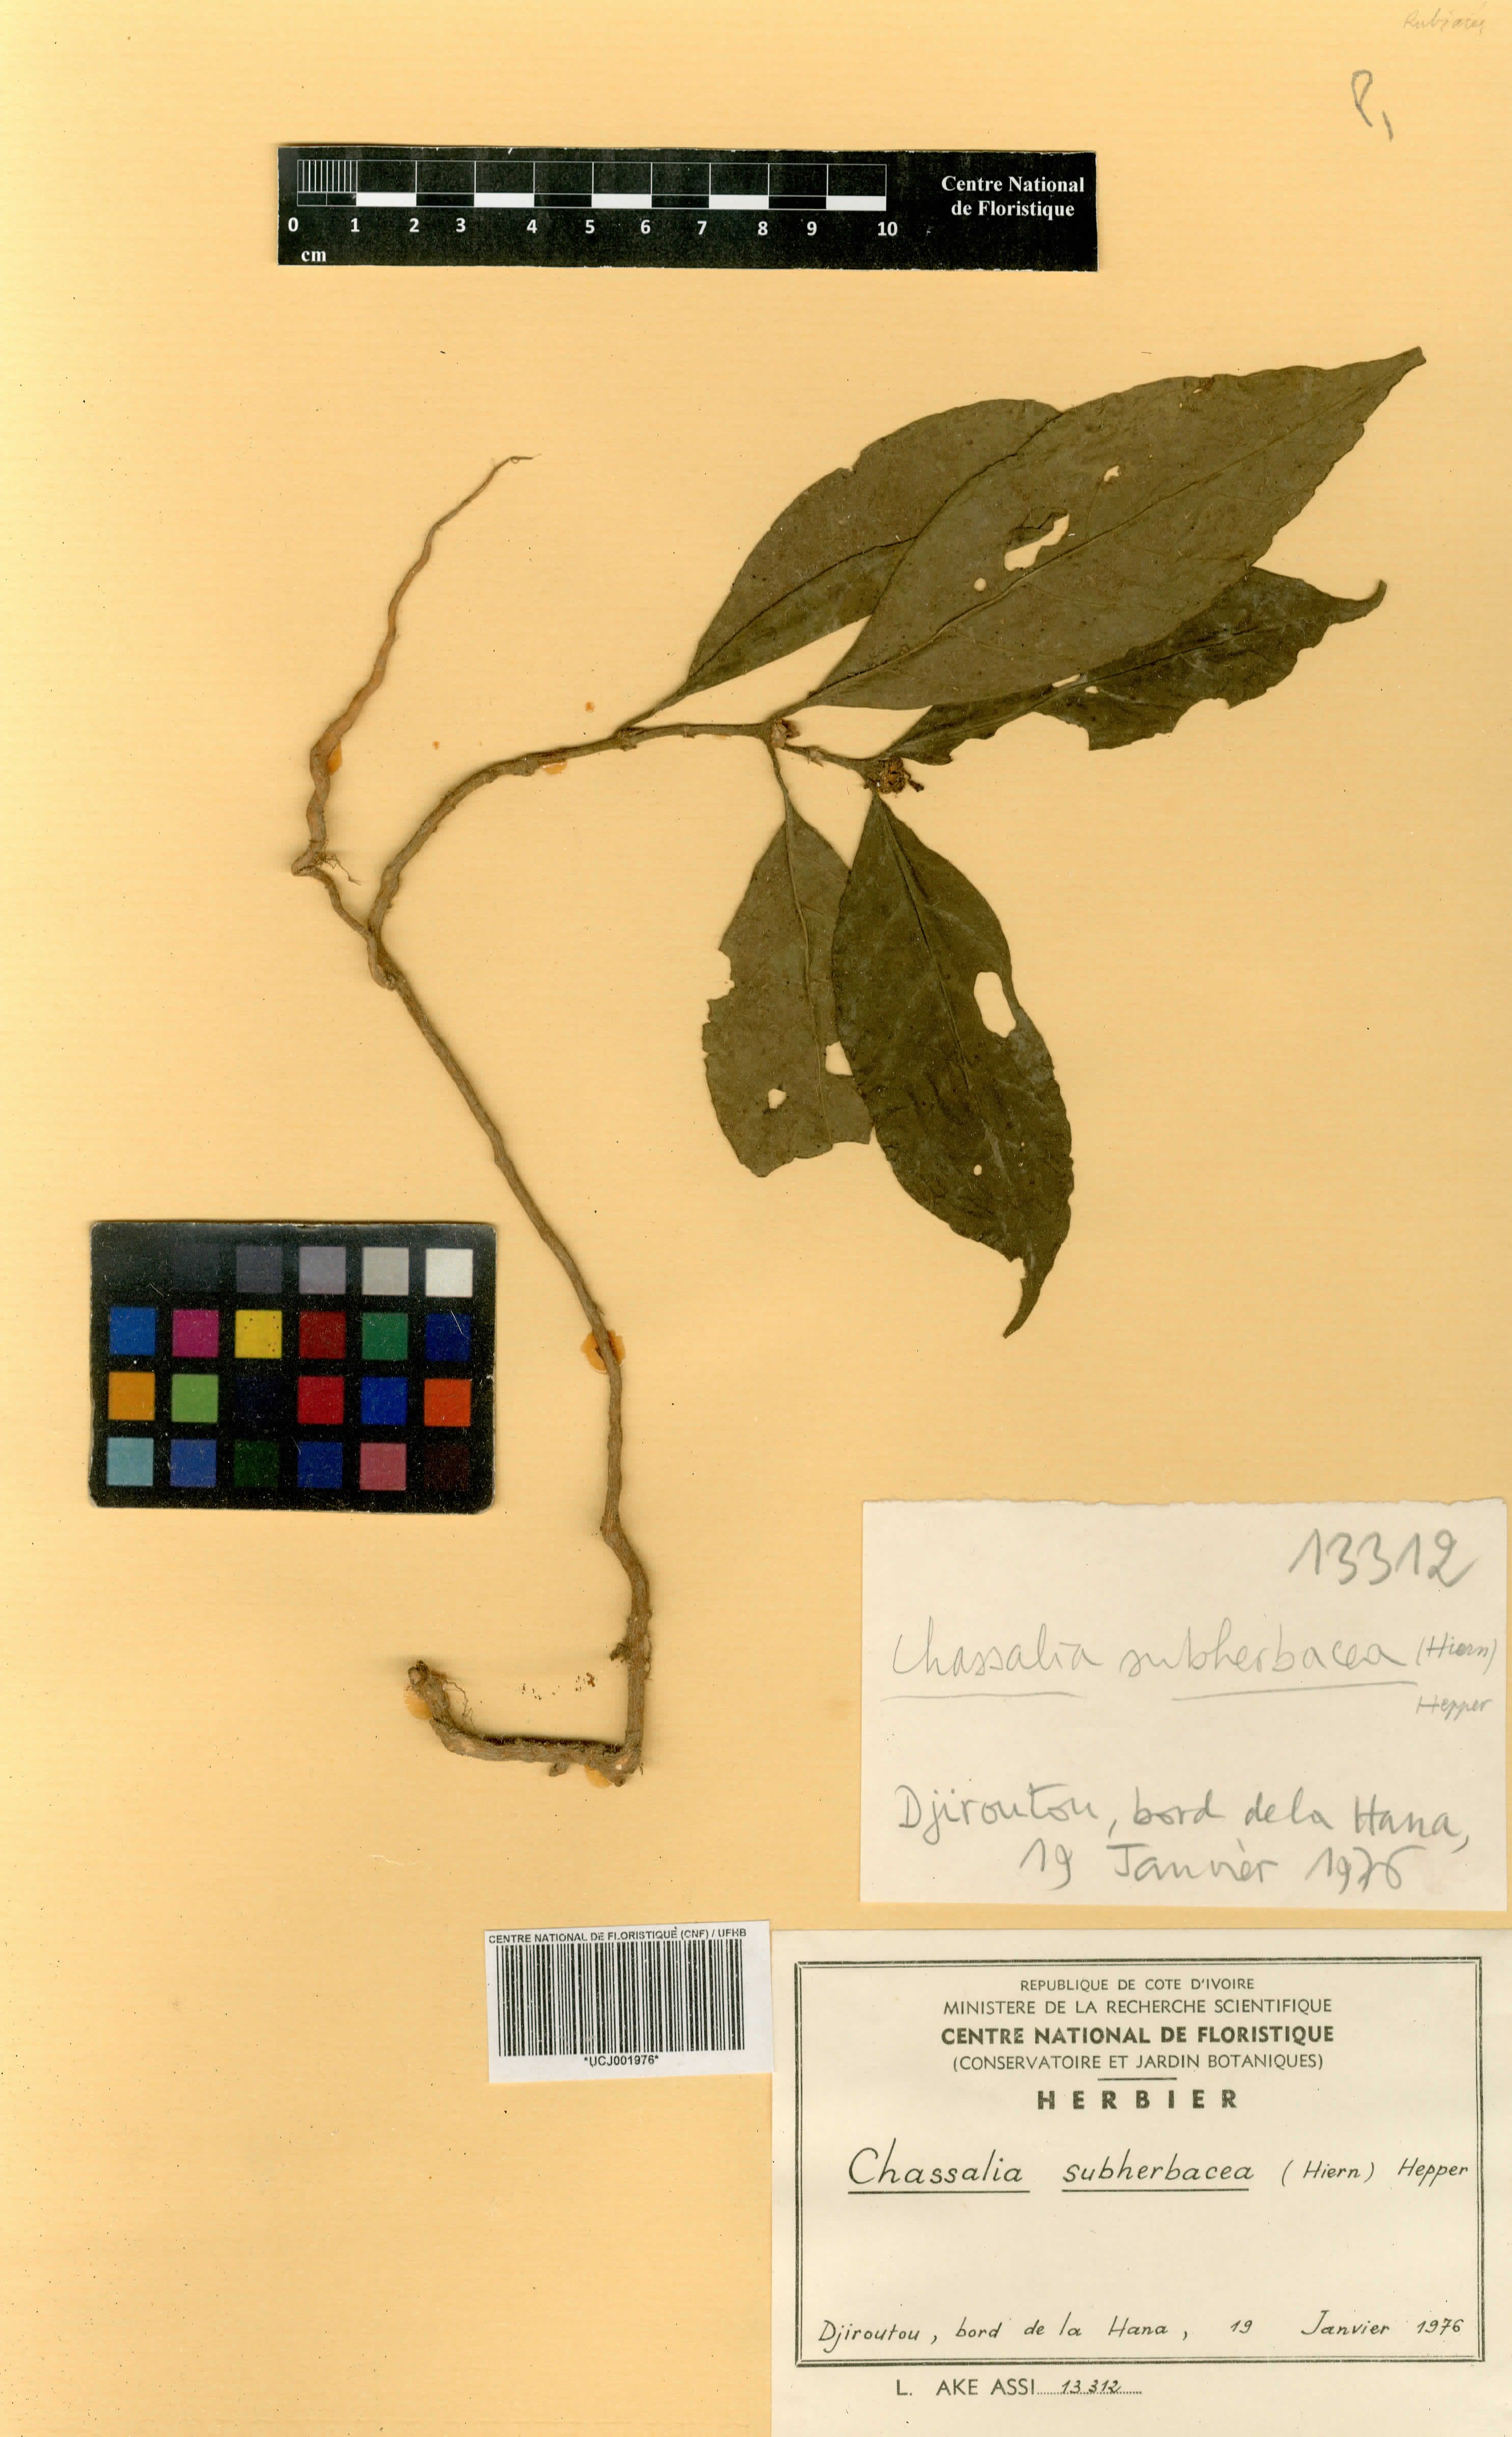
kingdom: Plantae
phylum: Tracheophyta
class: Magnoliopsida
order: Gentianales
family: Rubiaceae
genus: Chassalia
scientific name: Chassalia subherbacea
